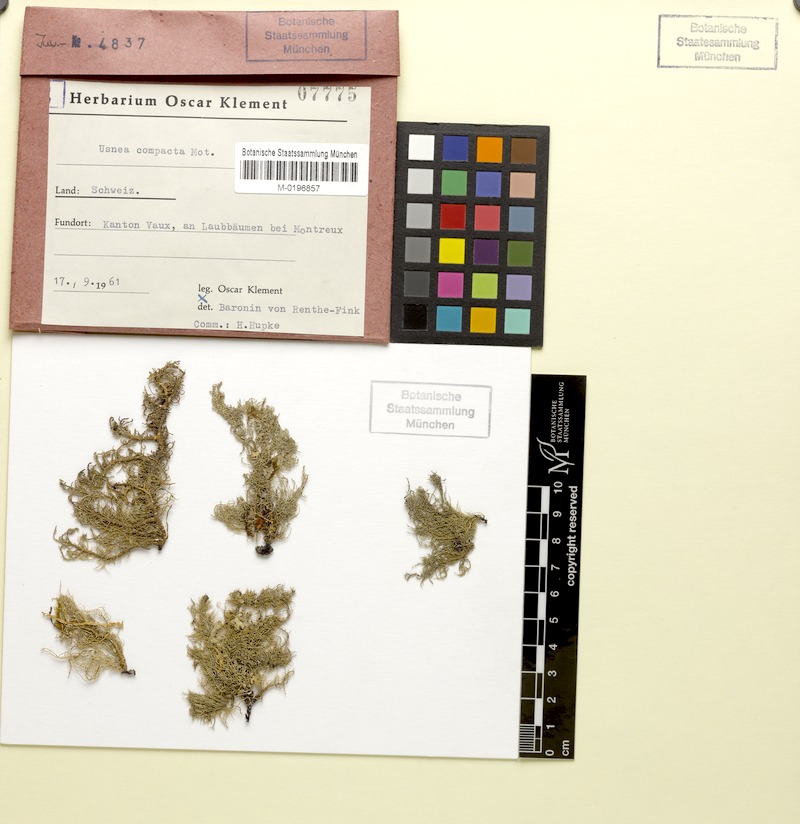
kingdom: Fungi
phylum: Ascomycota
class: Lecanoromycetes
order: Lecanorales
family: Parmeliaceae
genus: Usnea
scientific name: Usnea glabrescens
